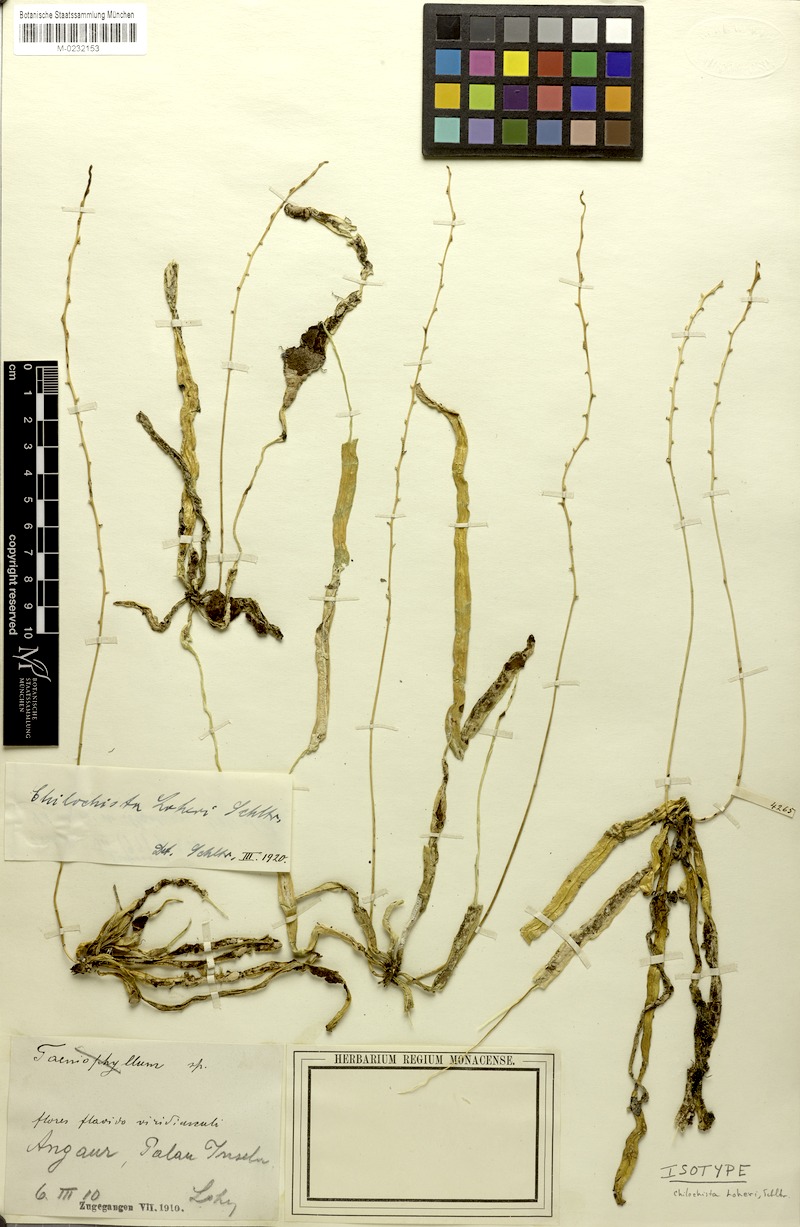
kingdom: Plantae
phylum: Tracheophyta
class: Liliopsida
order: Asparagales
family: Orchidaceae
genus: Chiloschista
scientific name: Chiloschista loheri
